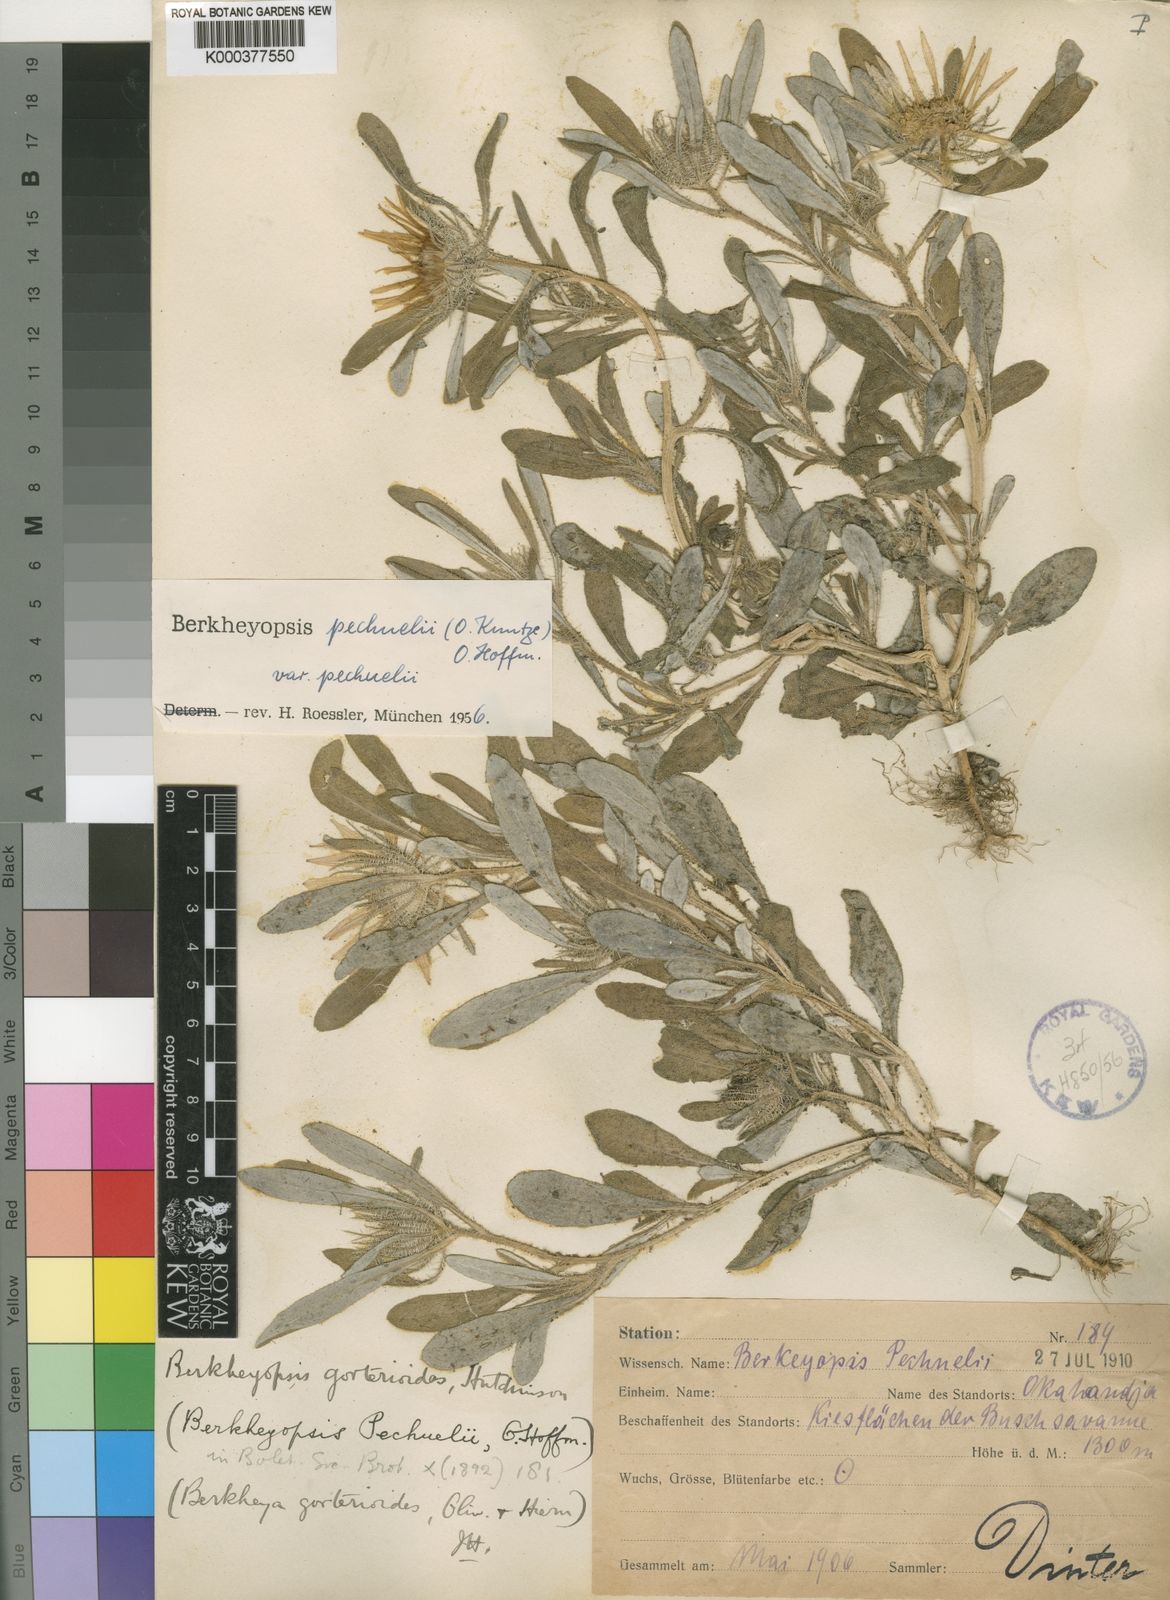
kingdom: Plantae
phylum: Tracheophyta
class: Magnoliopsida
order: Asterales
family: Asteraceae
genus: Roessleria
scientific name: Roessleria gazanioides
